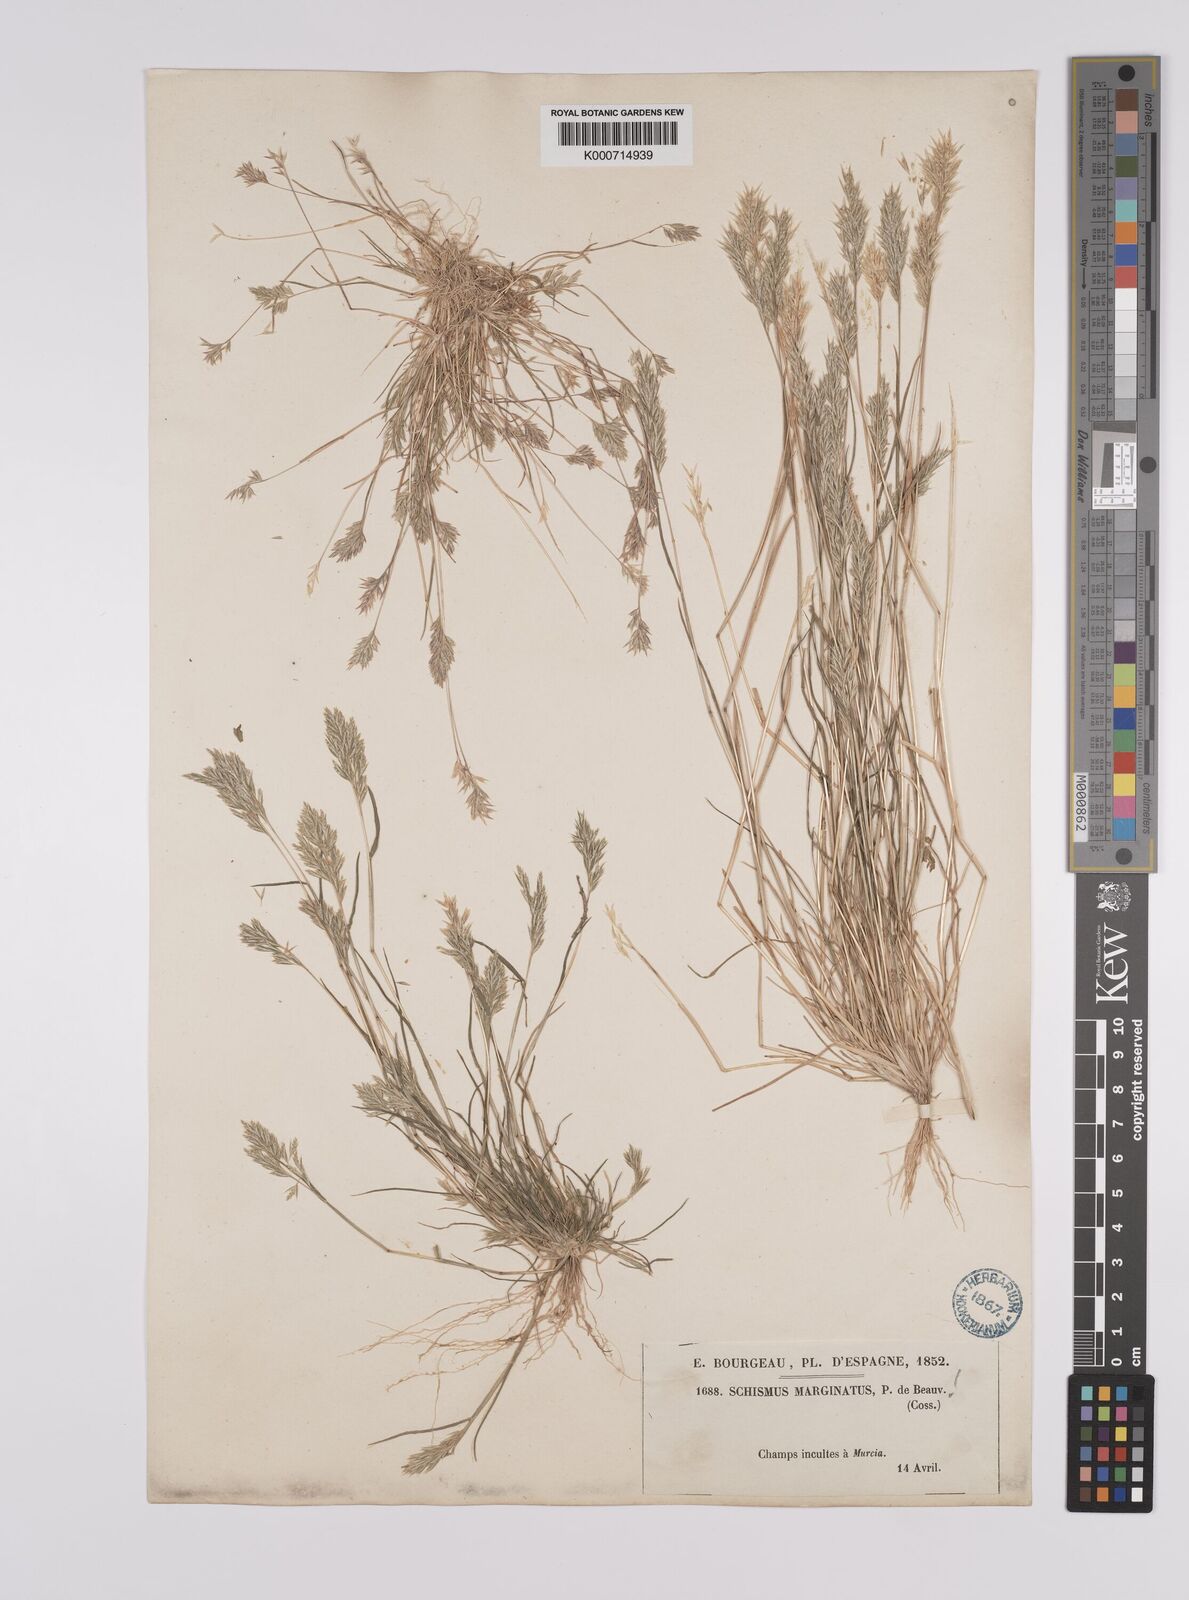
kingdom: Plantae
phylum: Tracheophyta
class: Liliopsida
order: Poales
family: Poaceae
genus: Schismus
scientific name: Schismus barbatus
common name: Kelch-grass
